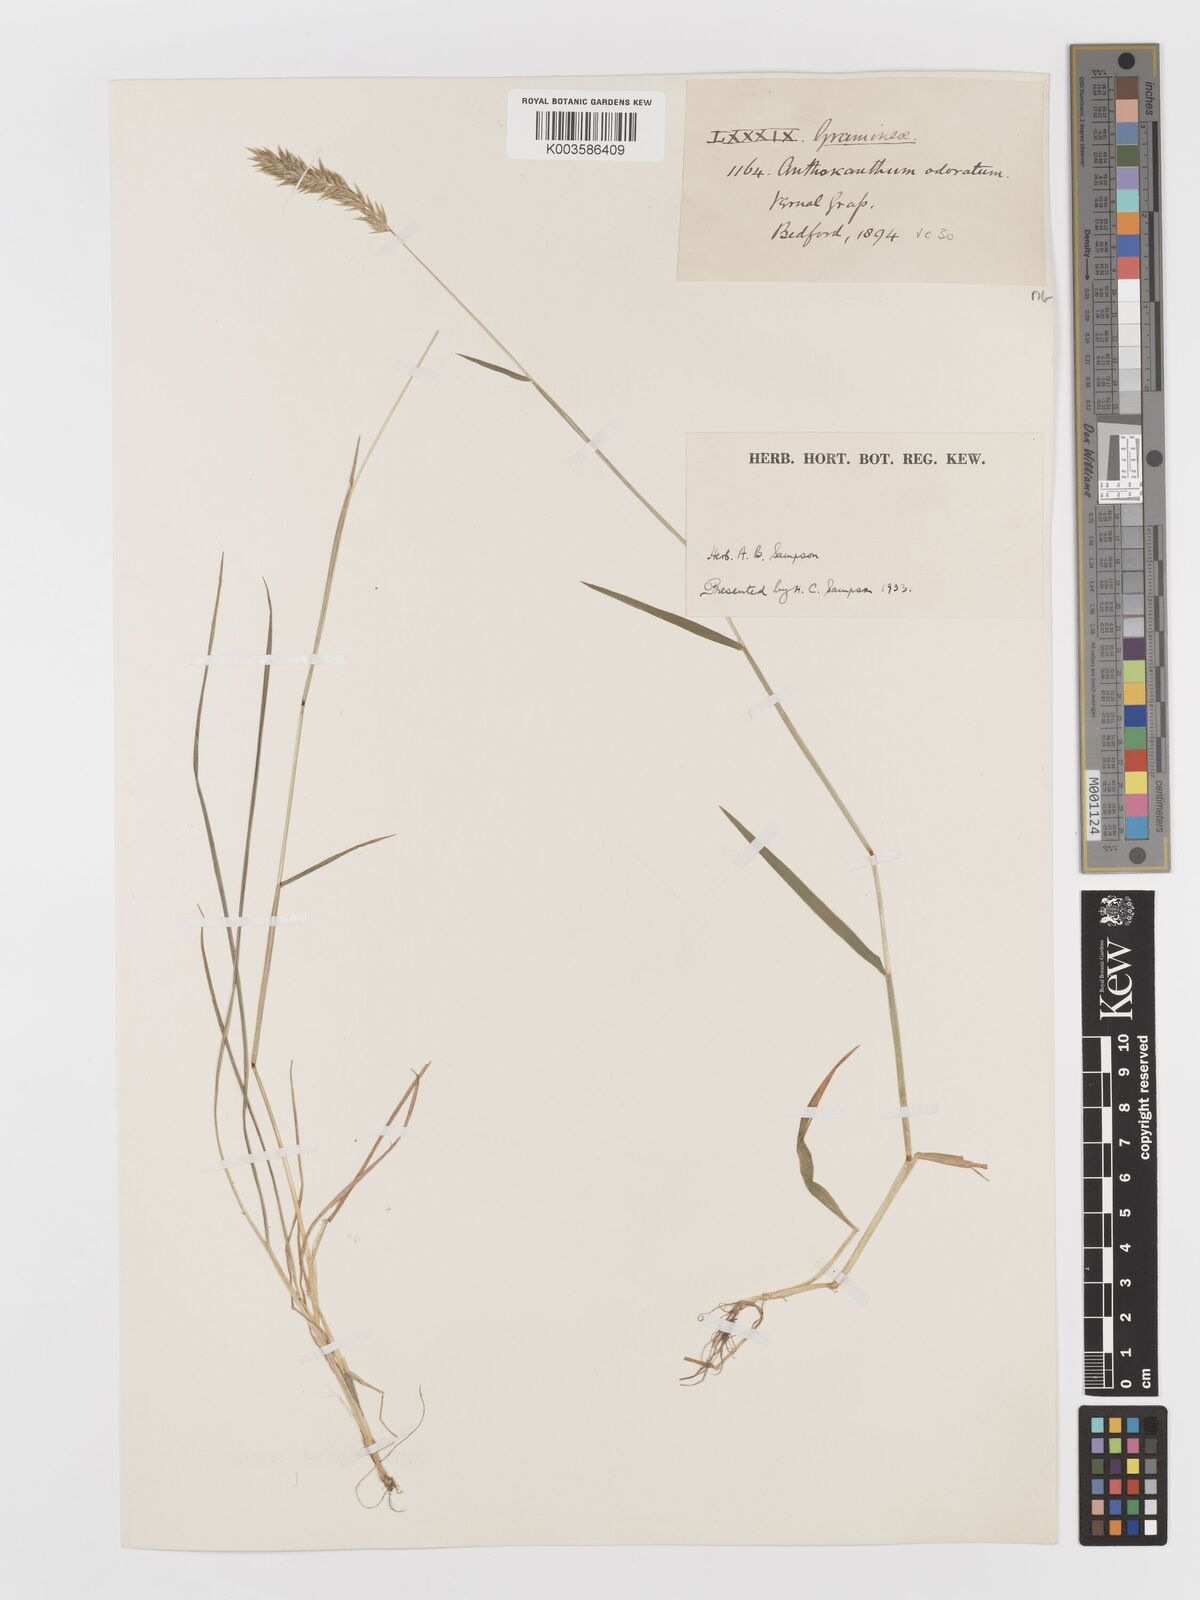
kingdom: Plantae
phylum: Tracheophyta
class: Liliopsida
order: Poales
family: Poaceae
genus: Anthoxanthum
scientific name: Anthoxanthum odoratum
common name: Sweet vernalgrass
